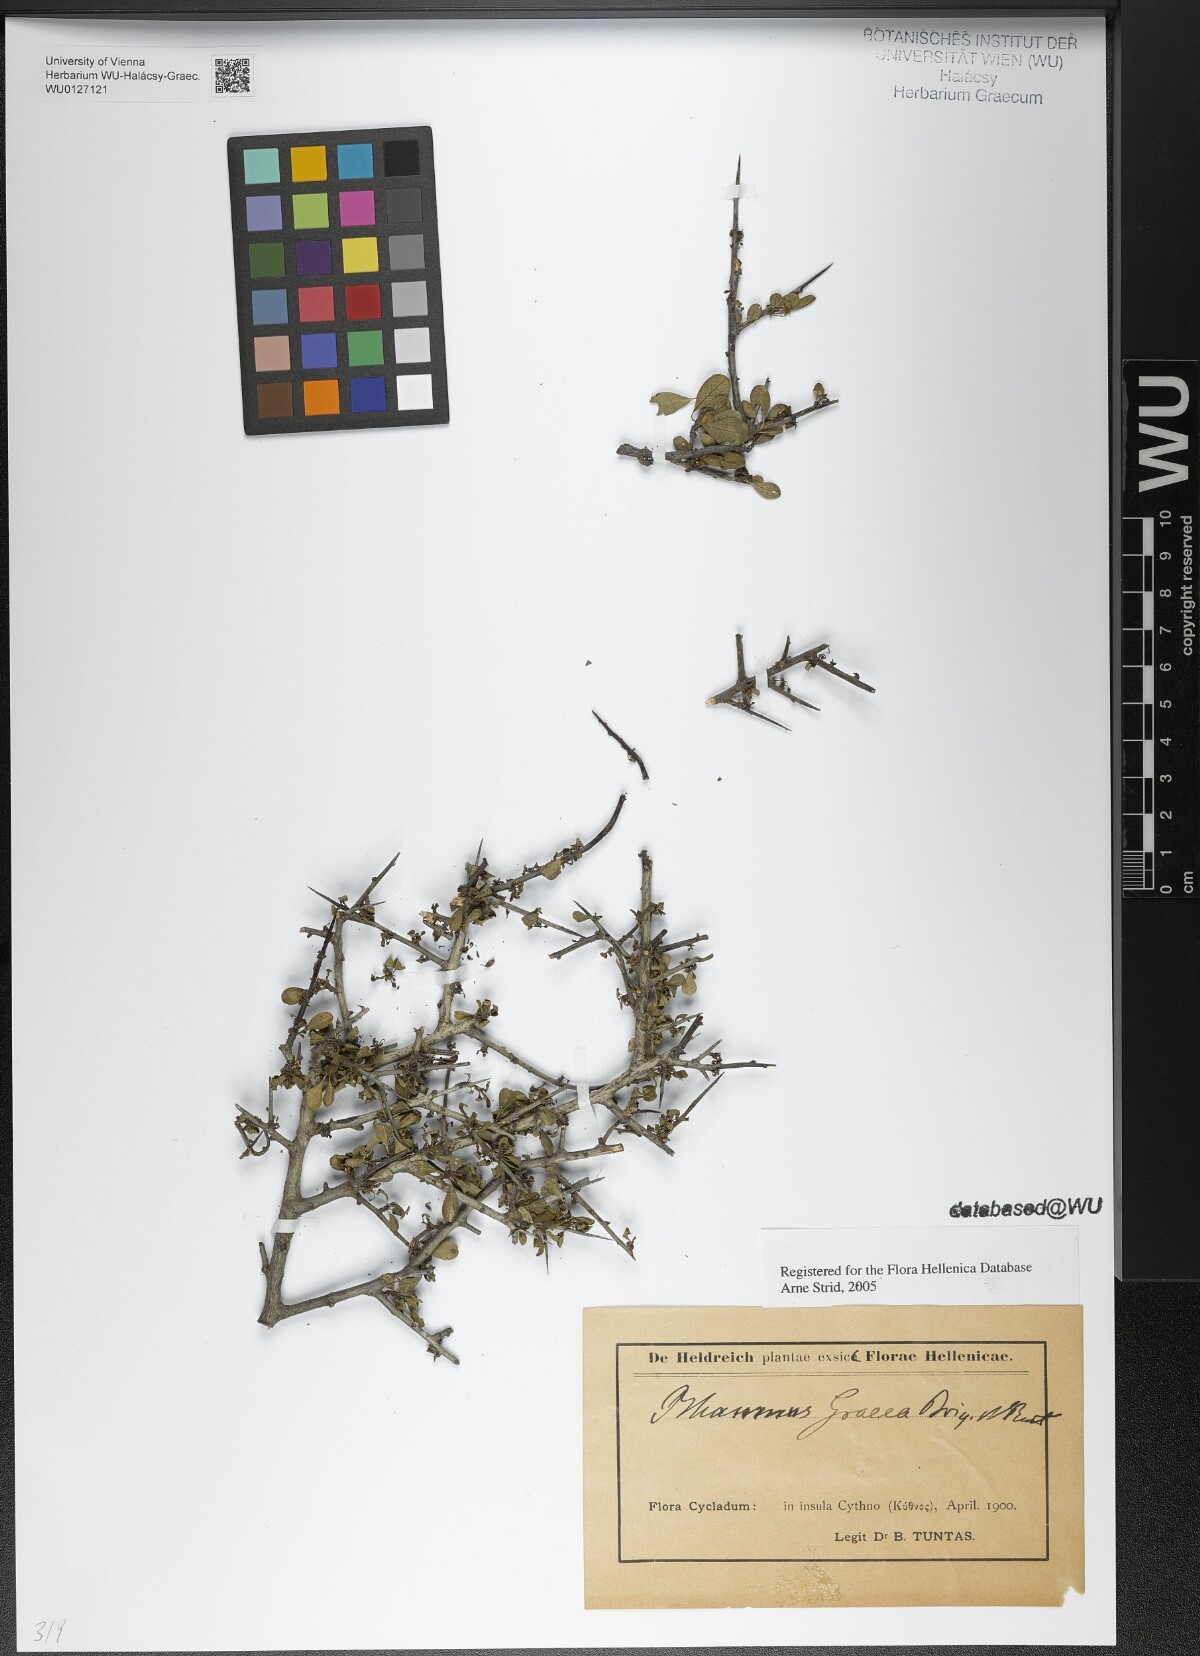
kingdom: Plantae
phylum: Tracheophyta
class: Magnoliopsida
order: Rosales
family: Rhamnaceae
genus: Rhamnus
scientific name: Rhamnus
